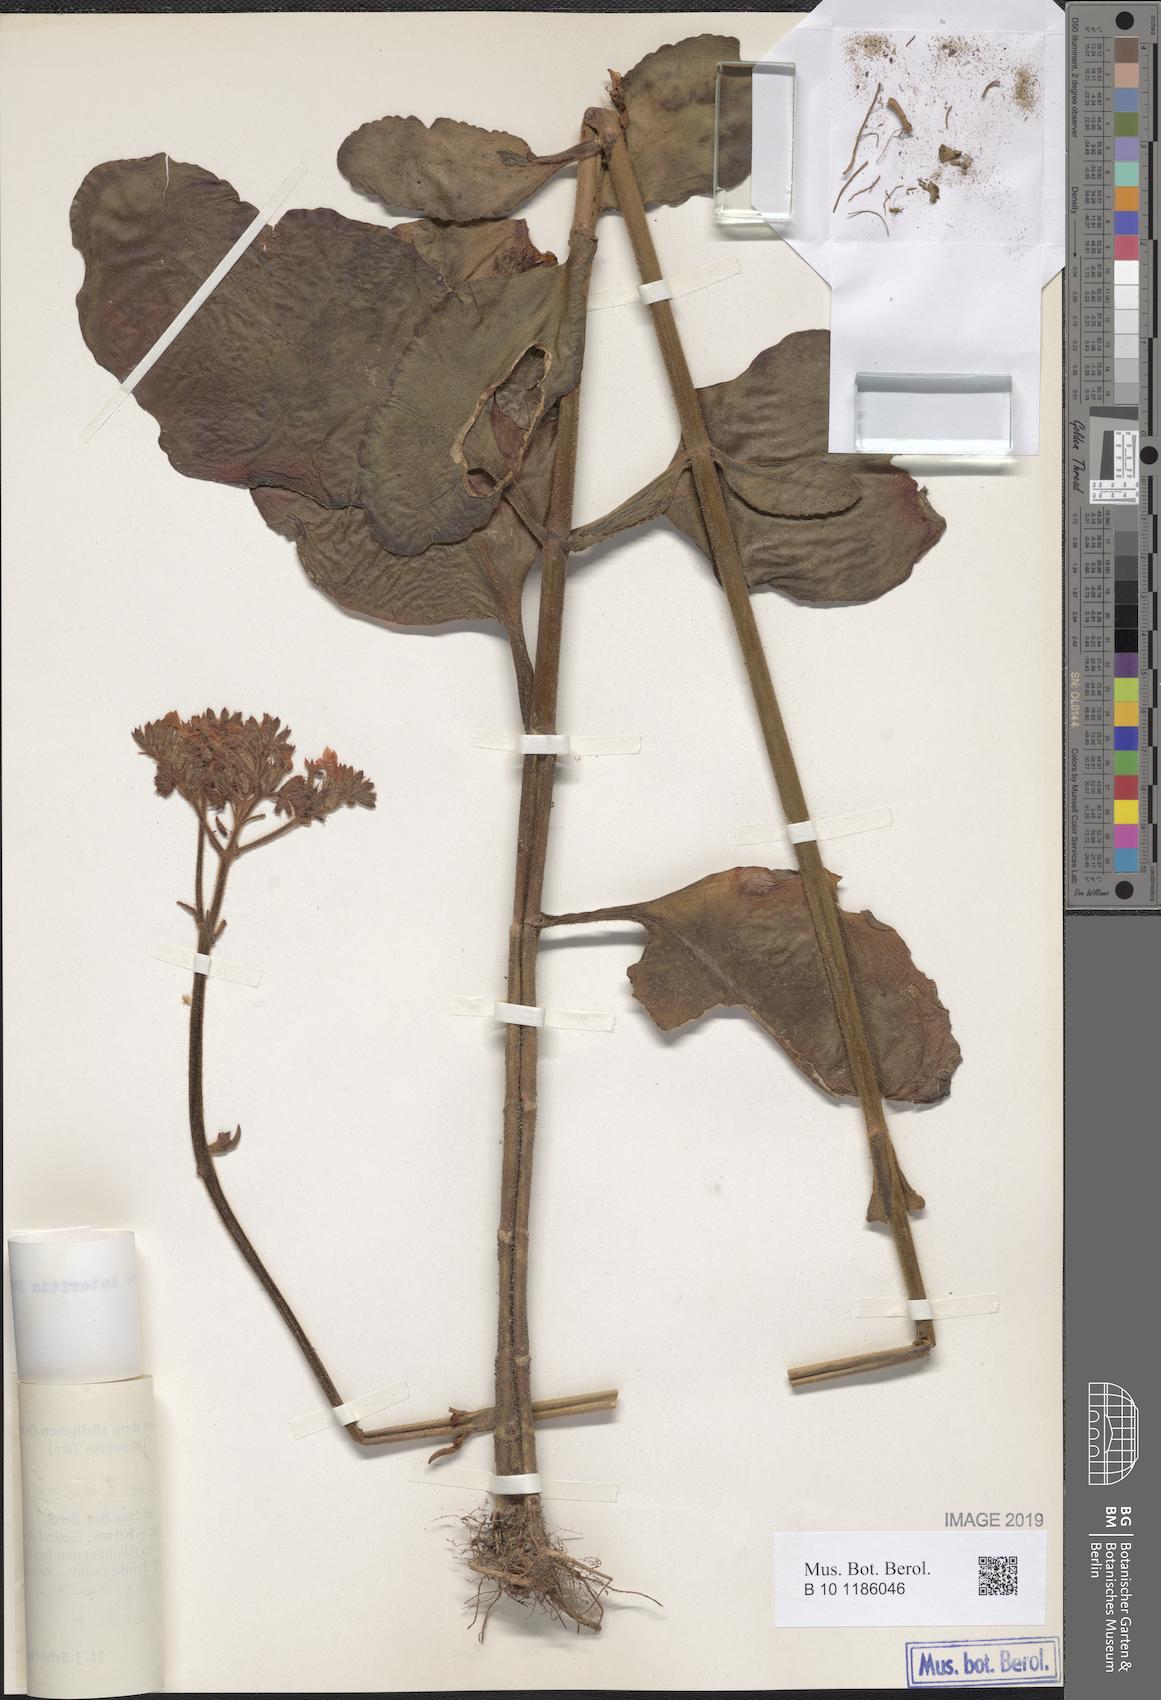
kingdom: Plantae
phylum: Tracheophyta
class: Magnoliopsida
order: Saxifragales
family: Crassulaceae
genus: Kalanchoe
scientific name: Kalanchoe lateritia
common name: Kalanchoe
